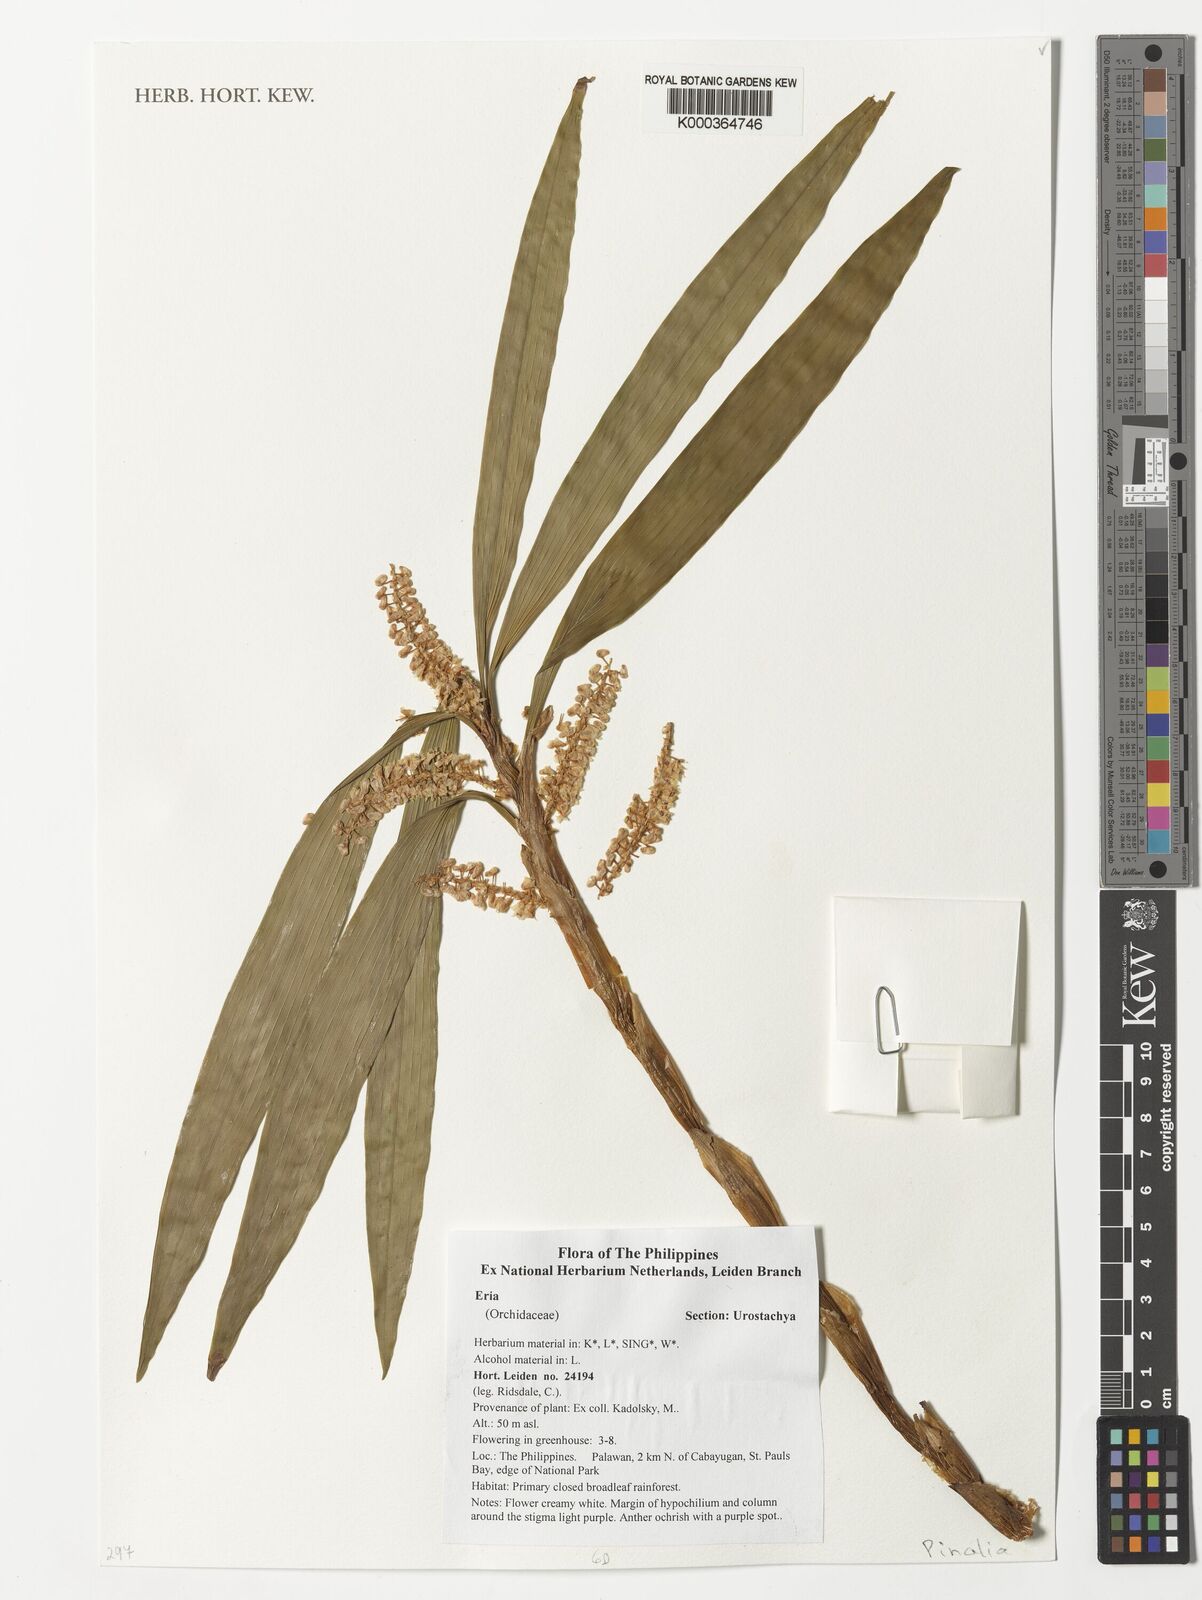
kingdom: Plantae
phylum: Tracheophyta
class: Liliopsida
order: Asparagales
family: Orchidaceae
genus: Eria
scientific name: Eria
